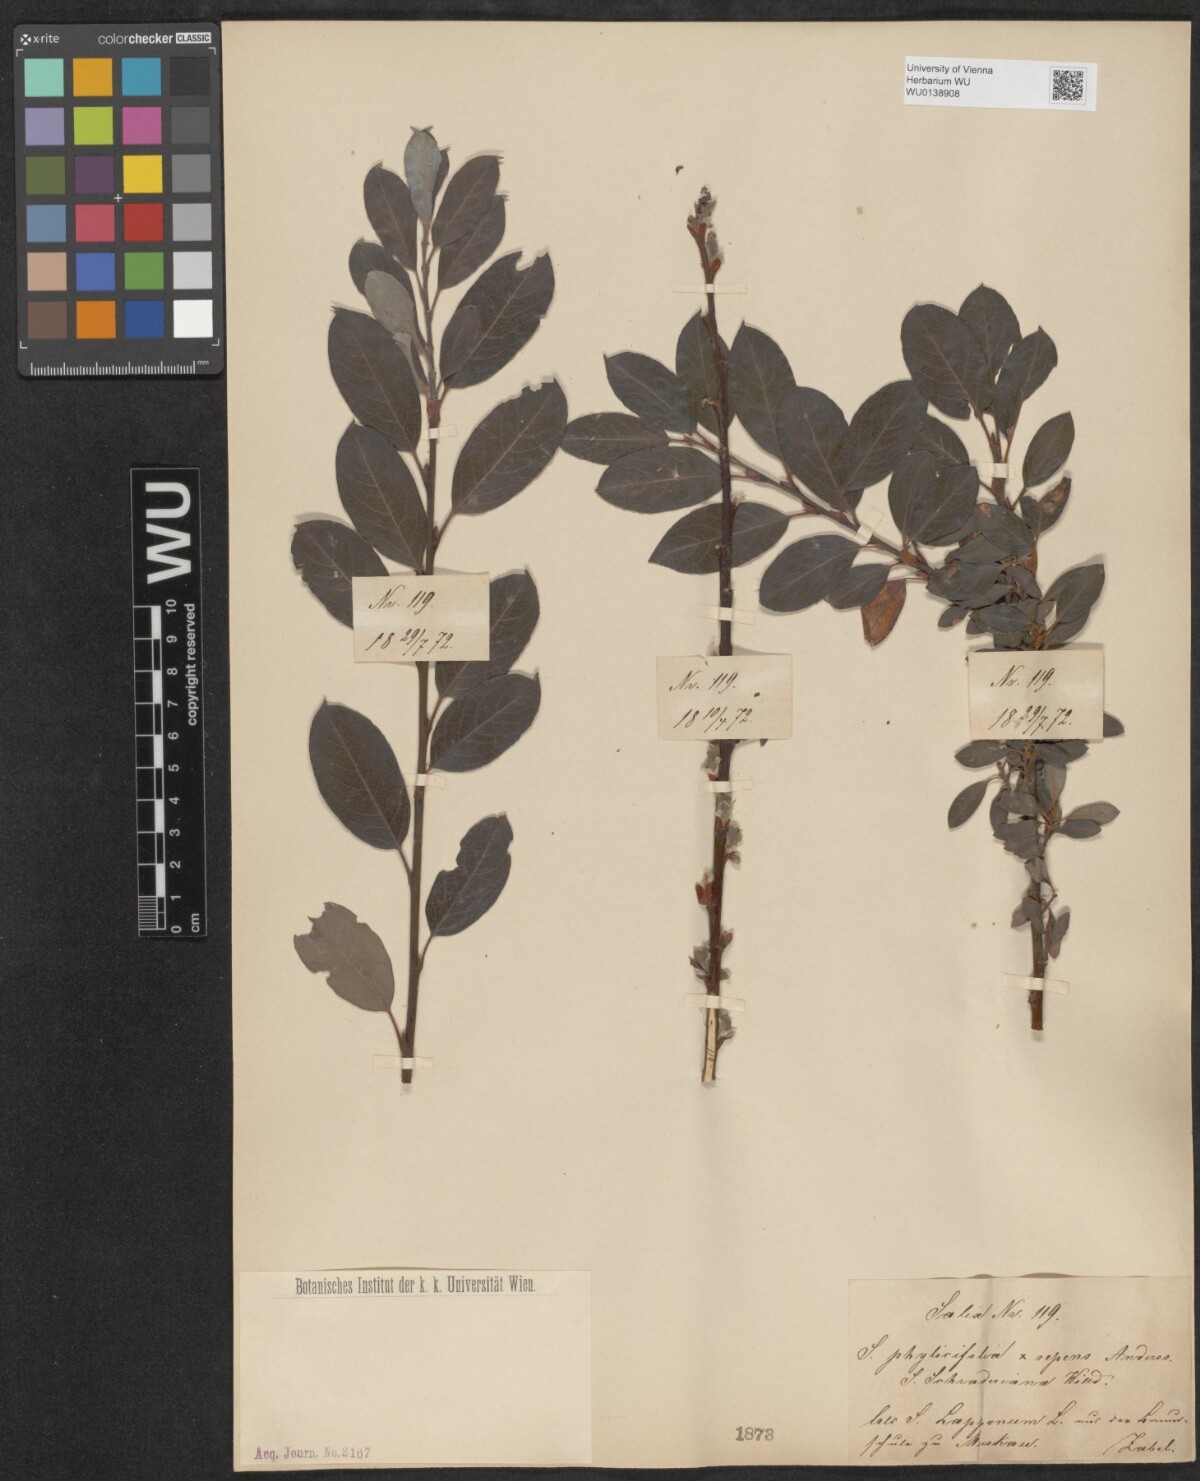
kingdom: Plantae
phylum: Tracheophyta
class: Magnoliopsida
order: Malpighiales
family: Salicaceae
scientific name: Salicaceae
